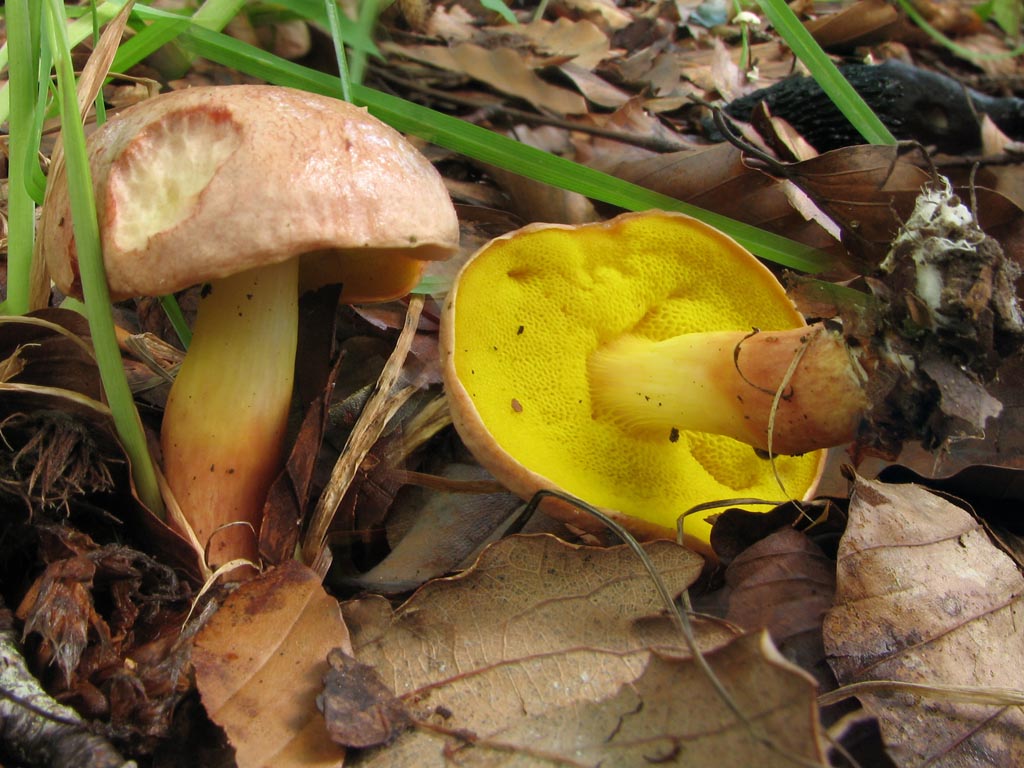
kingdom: Fungi
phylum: Basidiomycota
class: Agaricomycetes
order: Boletales
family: Boletaceae
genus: Aureoboletus
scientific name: Aureoboletus gentilis
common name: guldrørhat
